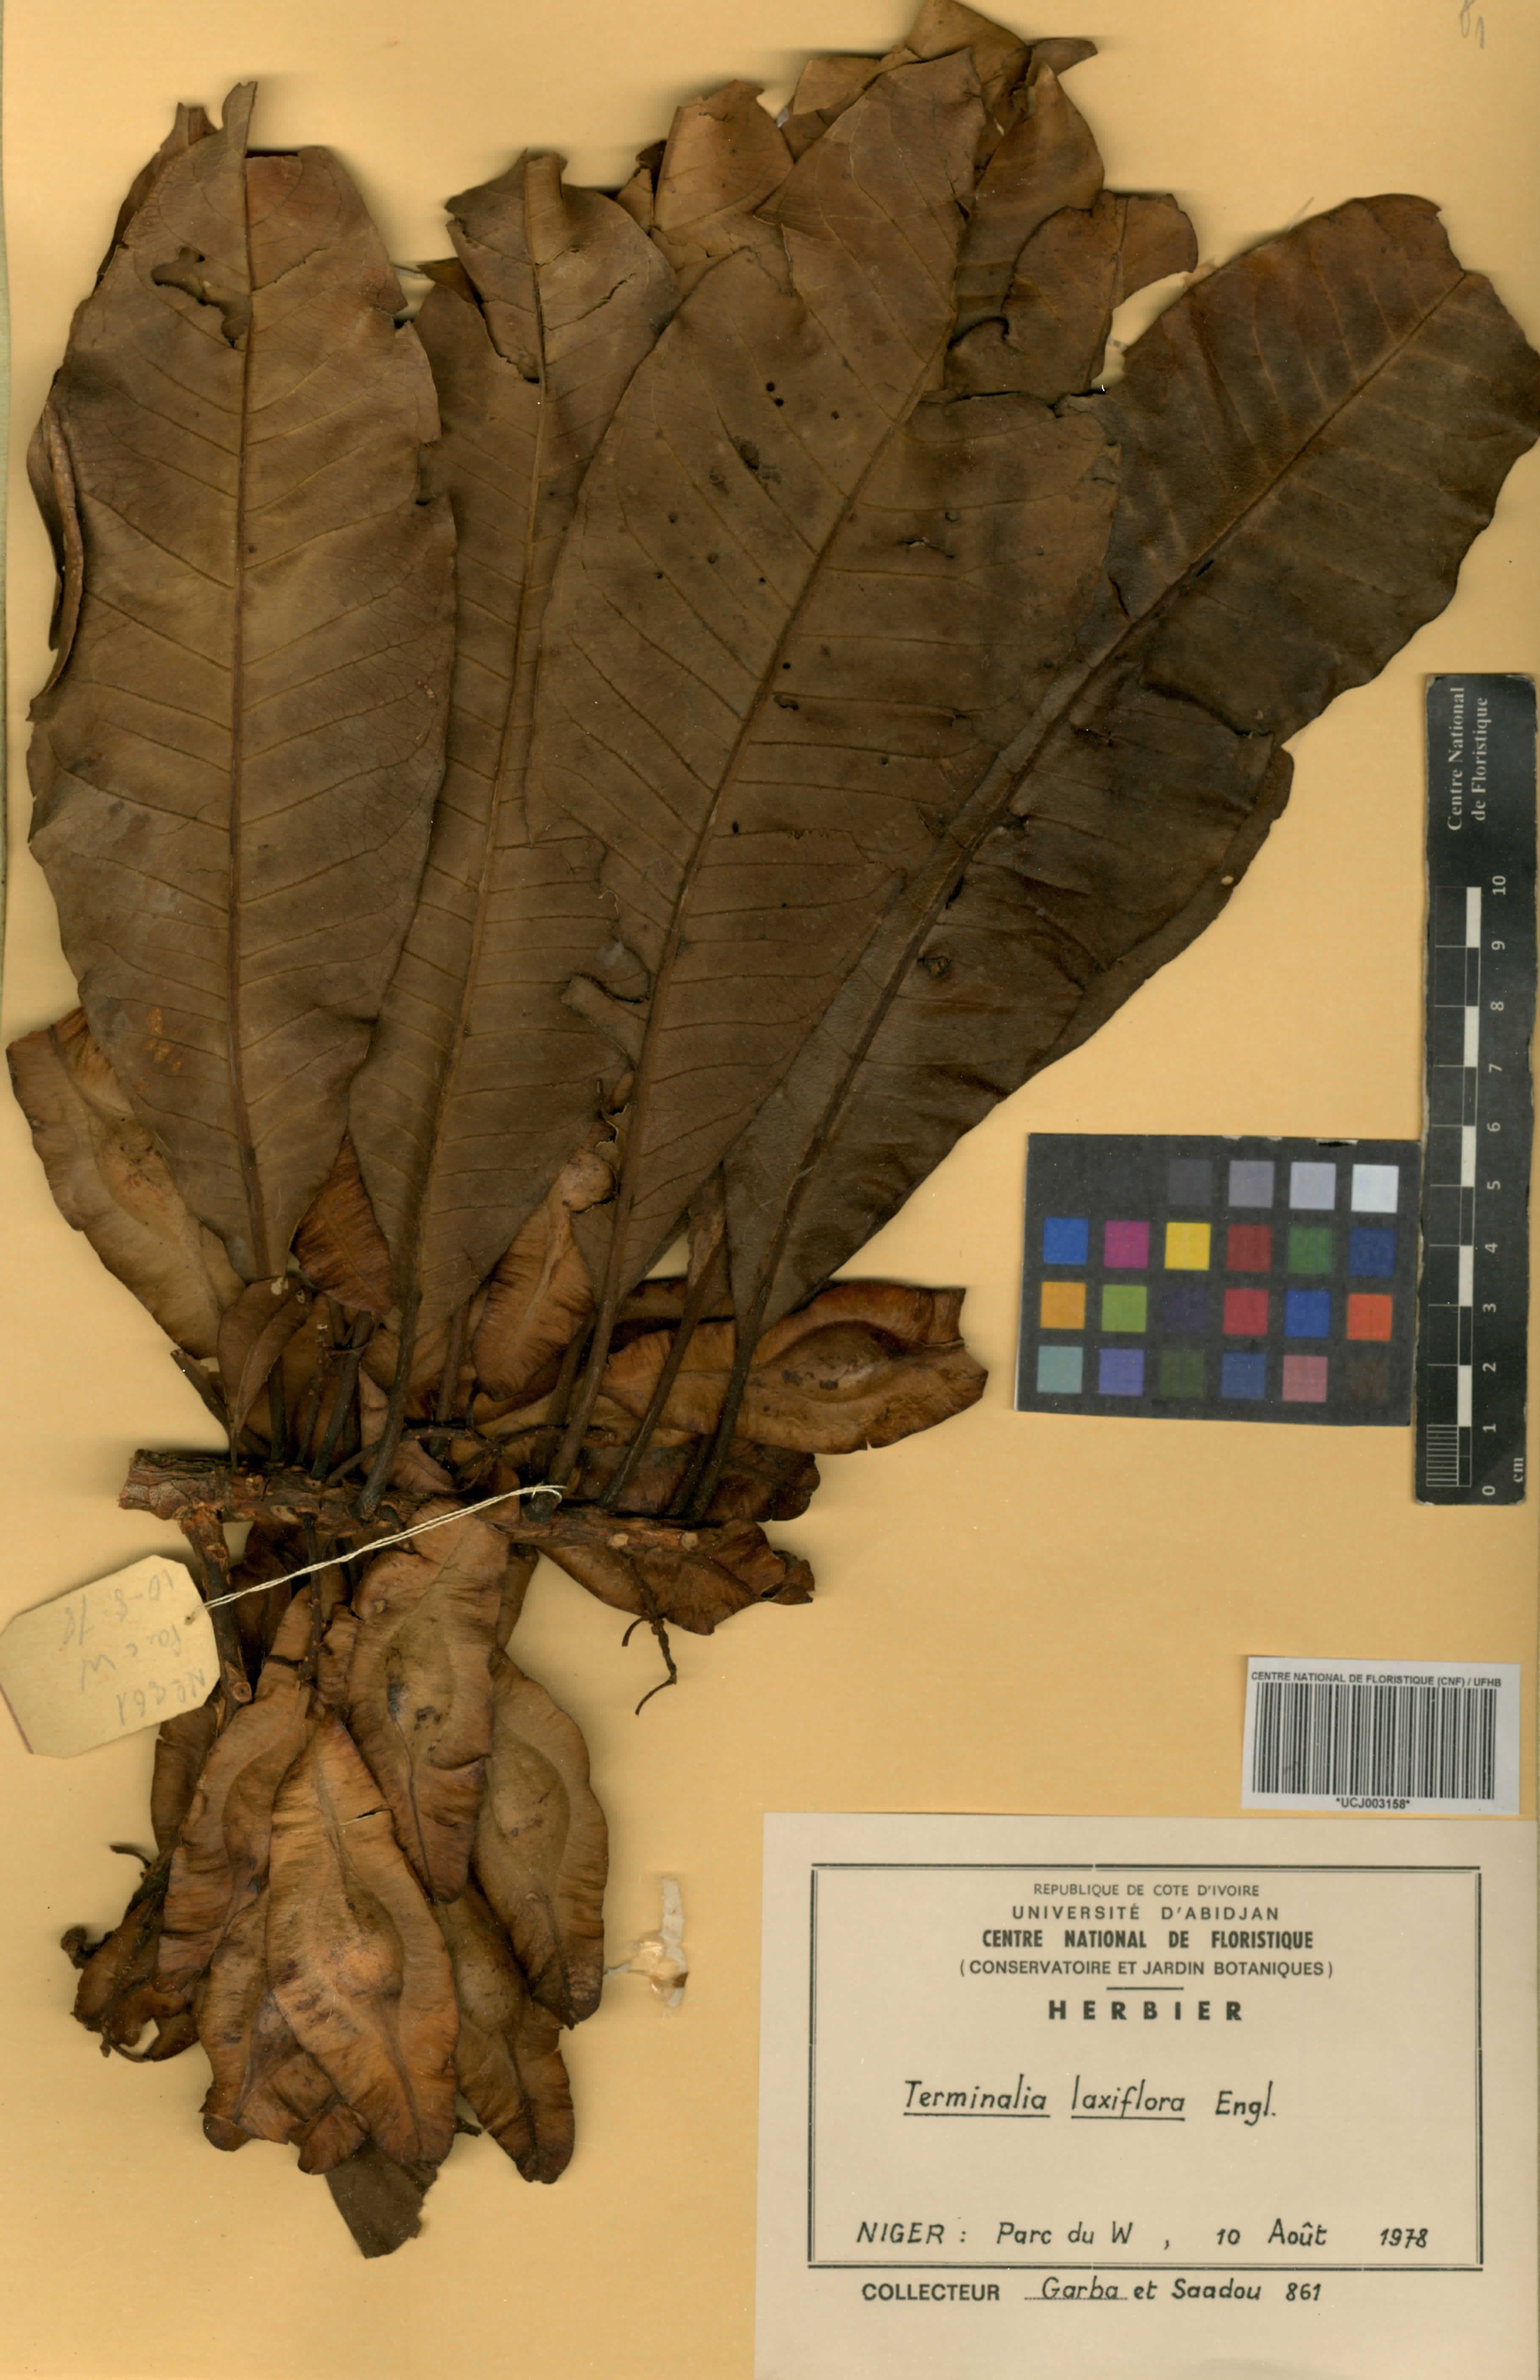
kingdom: Plantae
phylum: Tracheophyta
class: Magnoliopsida
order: Myrtales
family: Combretaceae
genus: Terminalia
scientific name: Terminalia laxiflora
